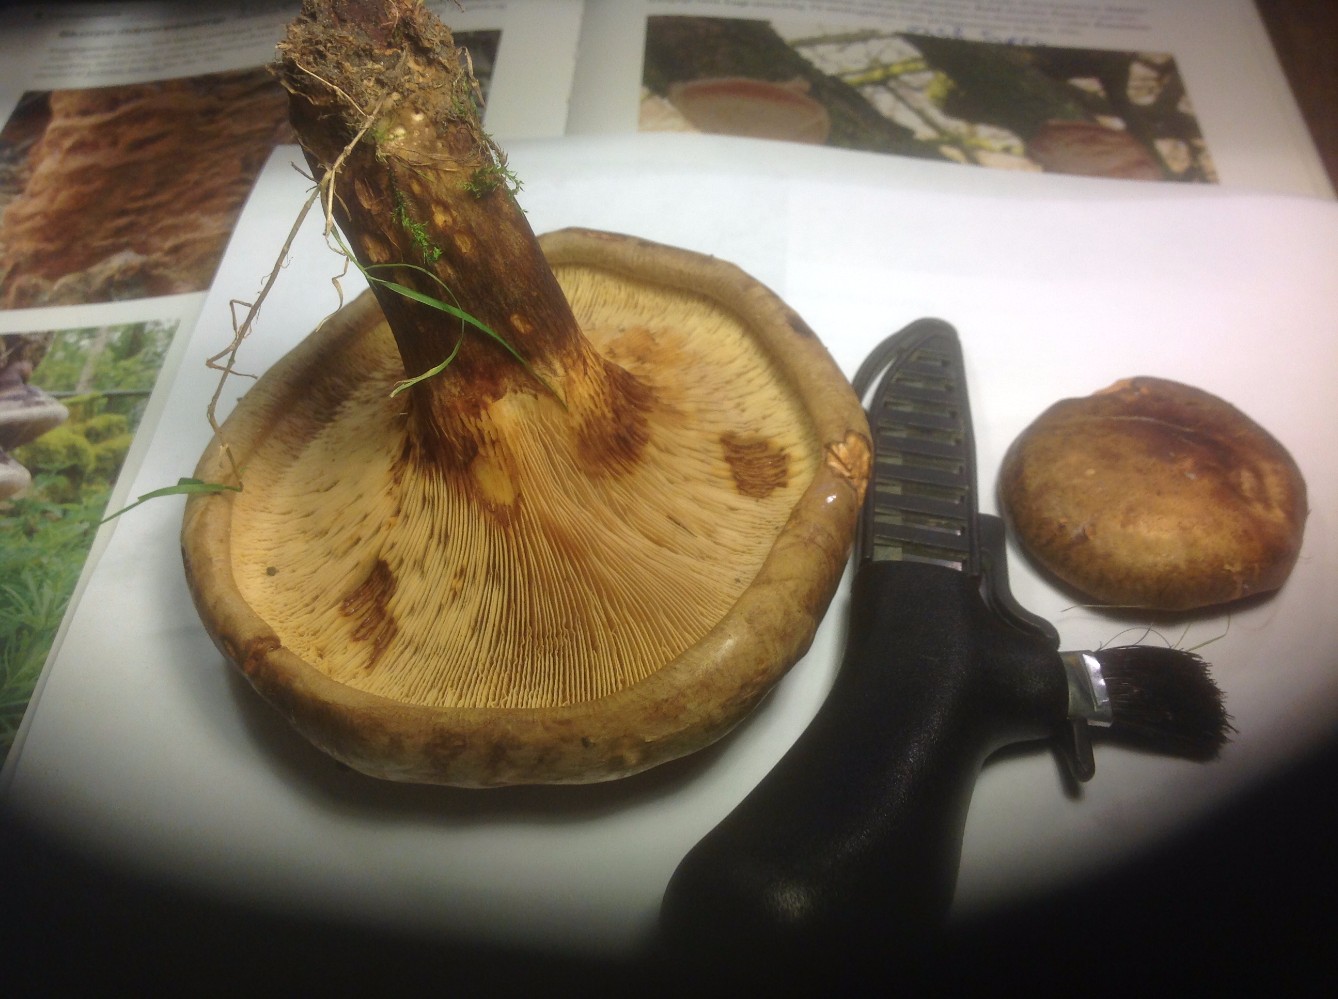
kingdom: Fungi
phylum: Basidiomycota
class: Agaricomycetes
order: Boletales
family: Paxillaceae
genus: Paxillus
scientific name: Paxillus involutus
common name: almindelig netbladhat
